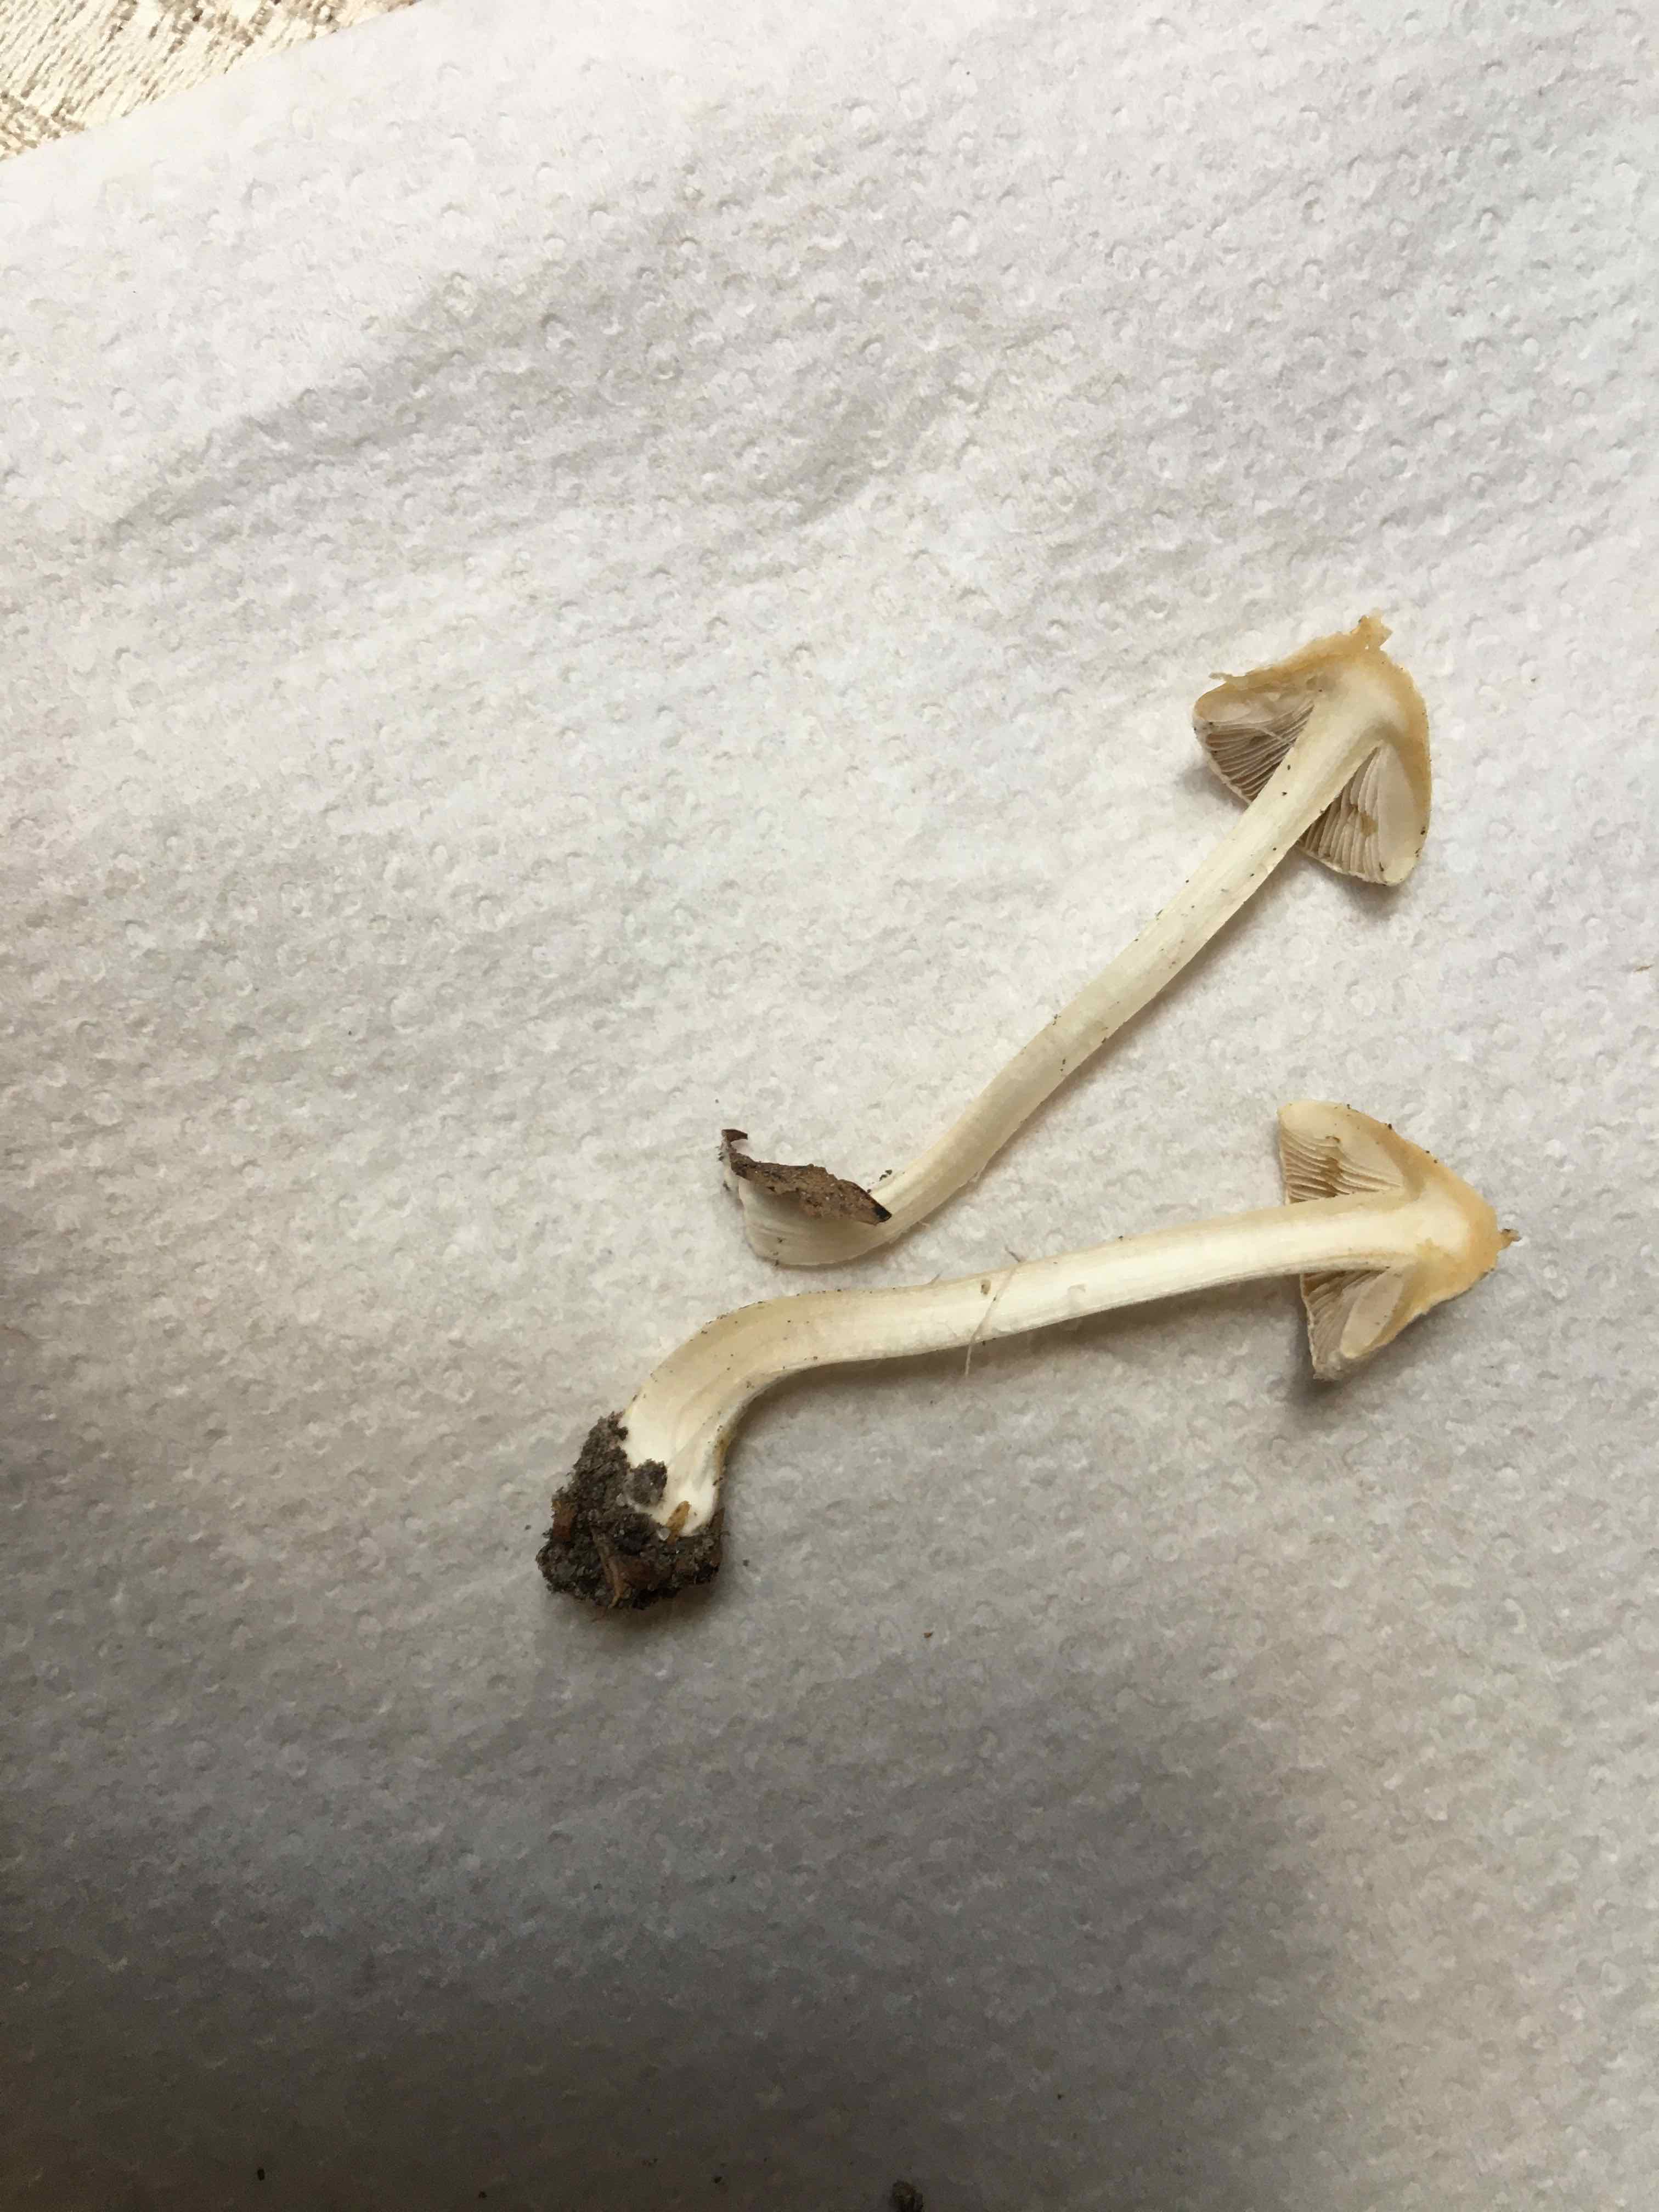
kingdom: Fungi
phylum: Basidiomycota
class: Agaricomycetes
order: Agaricales
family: Inocybaceae
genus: Inocybe
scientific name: Inocybe
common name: trævlhat
